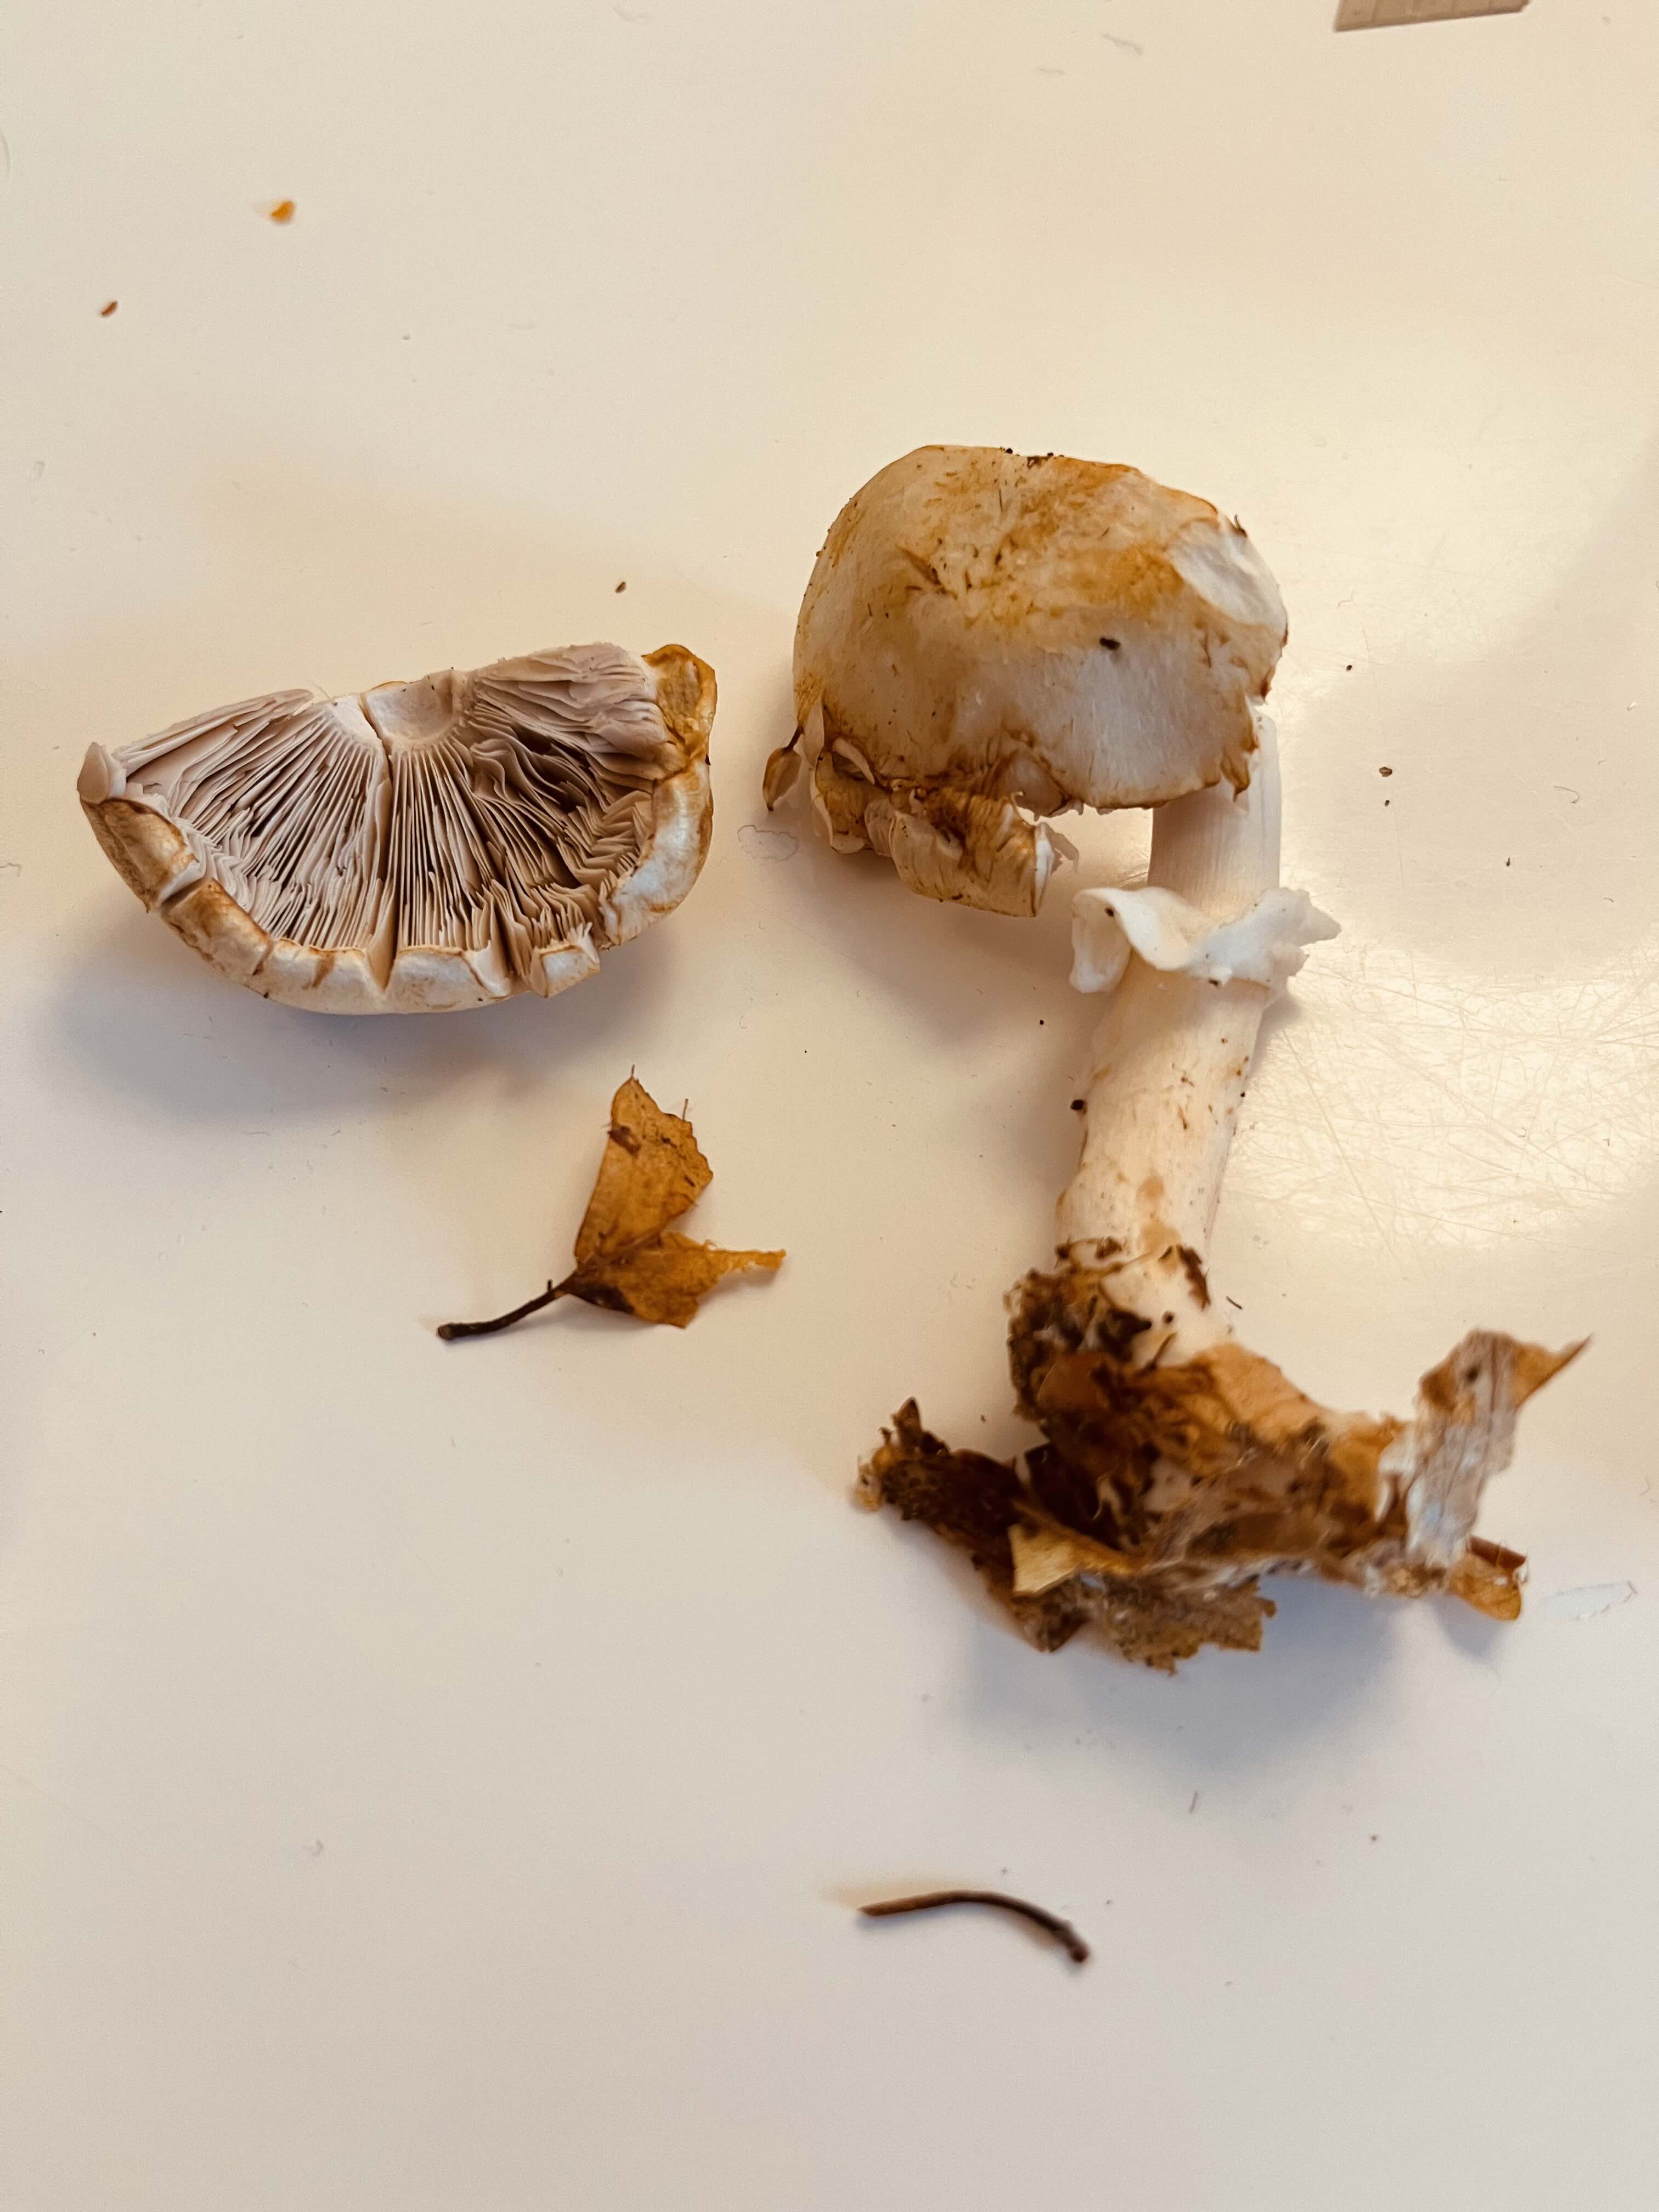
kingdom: Fungi
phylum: Basidiomycota
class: Agaricomycetes
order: Agaricales
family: Agaricaceae
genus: Agaricus
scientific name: Agaricus
